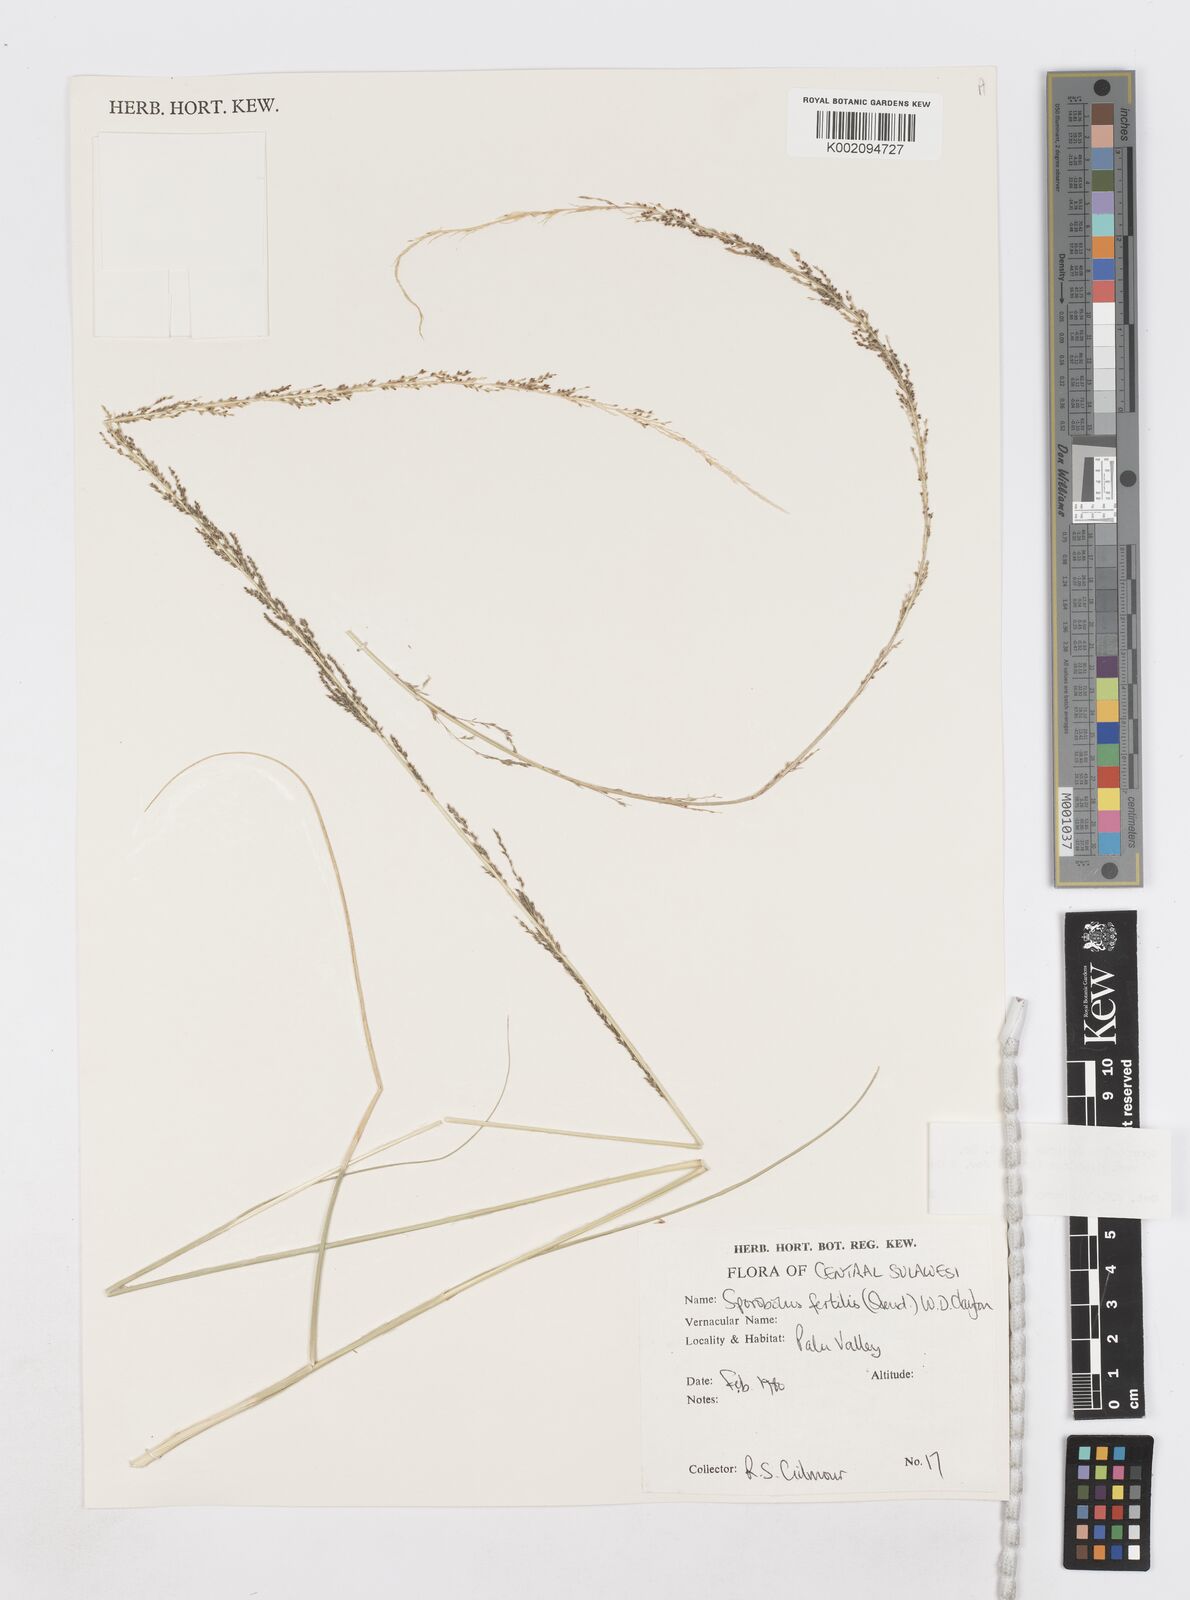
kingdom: Plantae
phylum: Tracheophyta
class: Liliopsida
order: Poales
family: Poaceae
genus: Sporobolus
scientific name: Sporobolus diandrus
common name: Tussock dropseed
